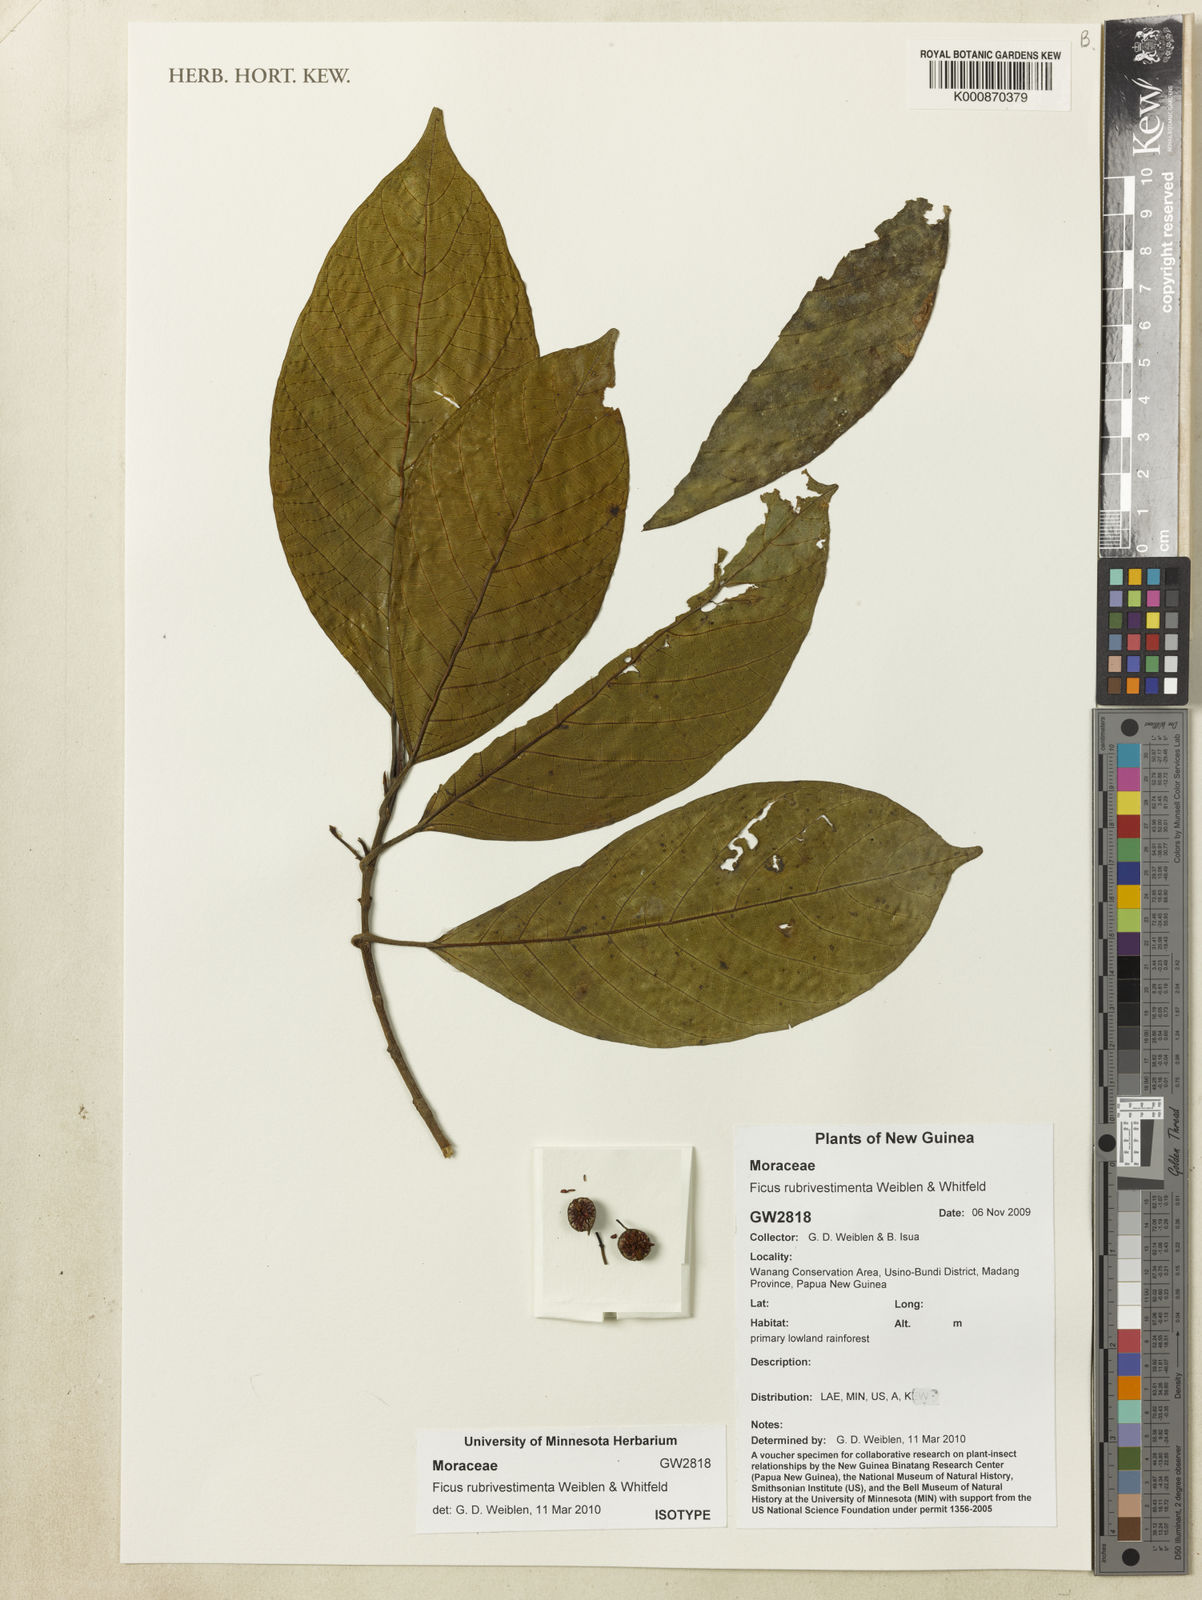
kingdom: Plantae
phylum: Tracheophyta
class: Magnoliopsida
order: Rosales
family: Moraceae
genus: Ficus
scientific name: Ficus rubrivestimenta
